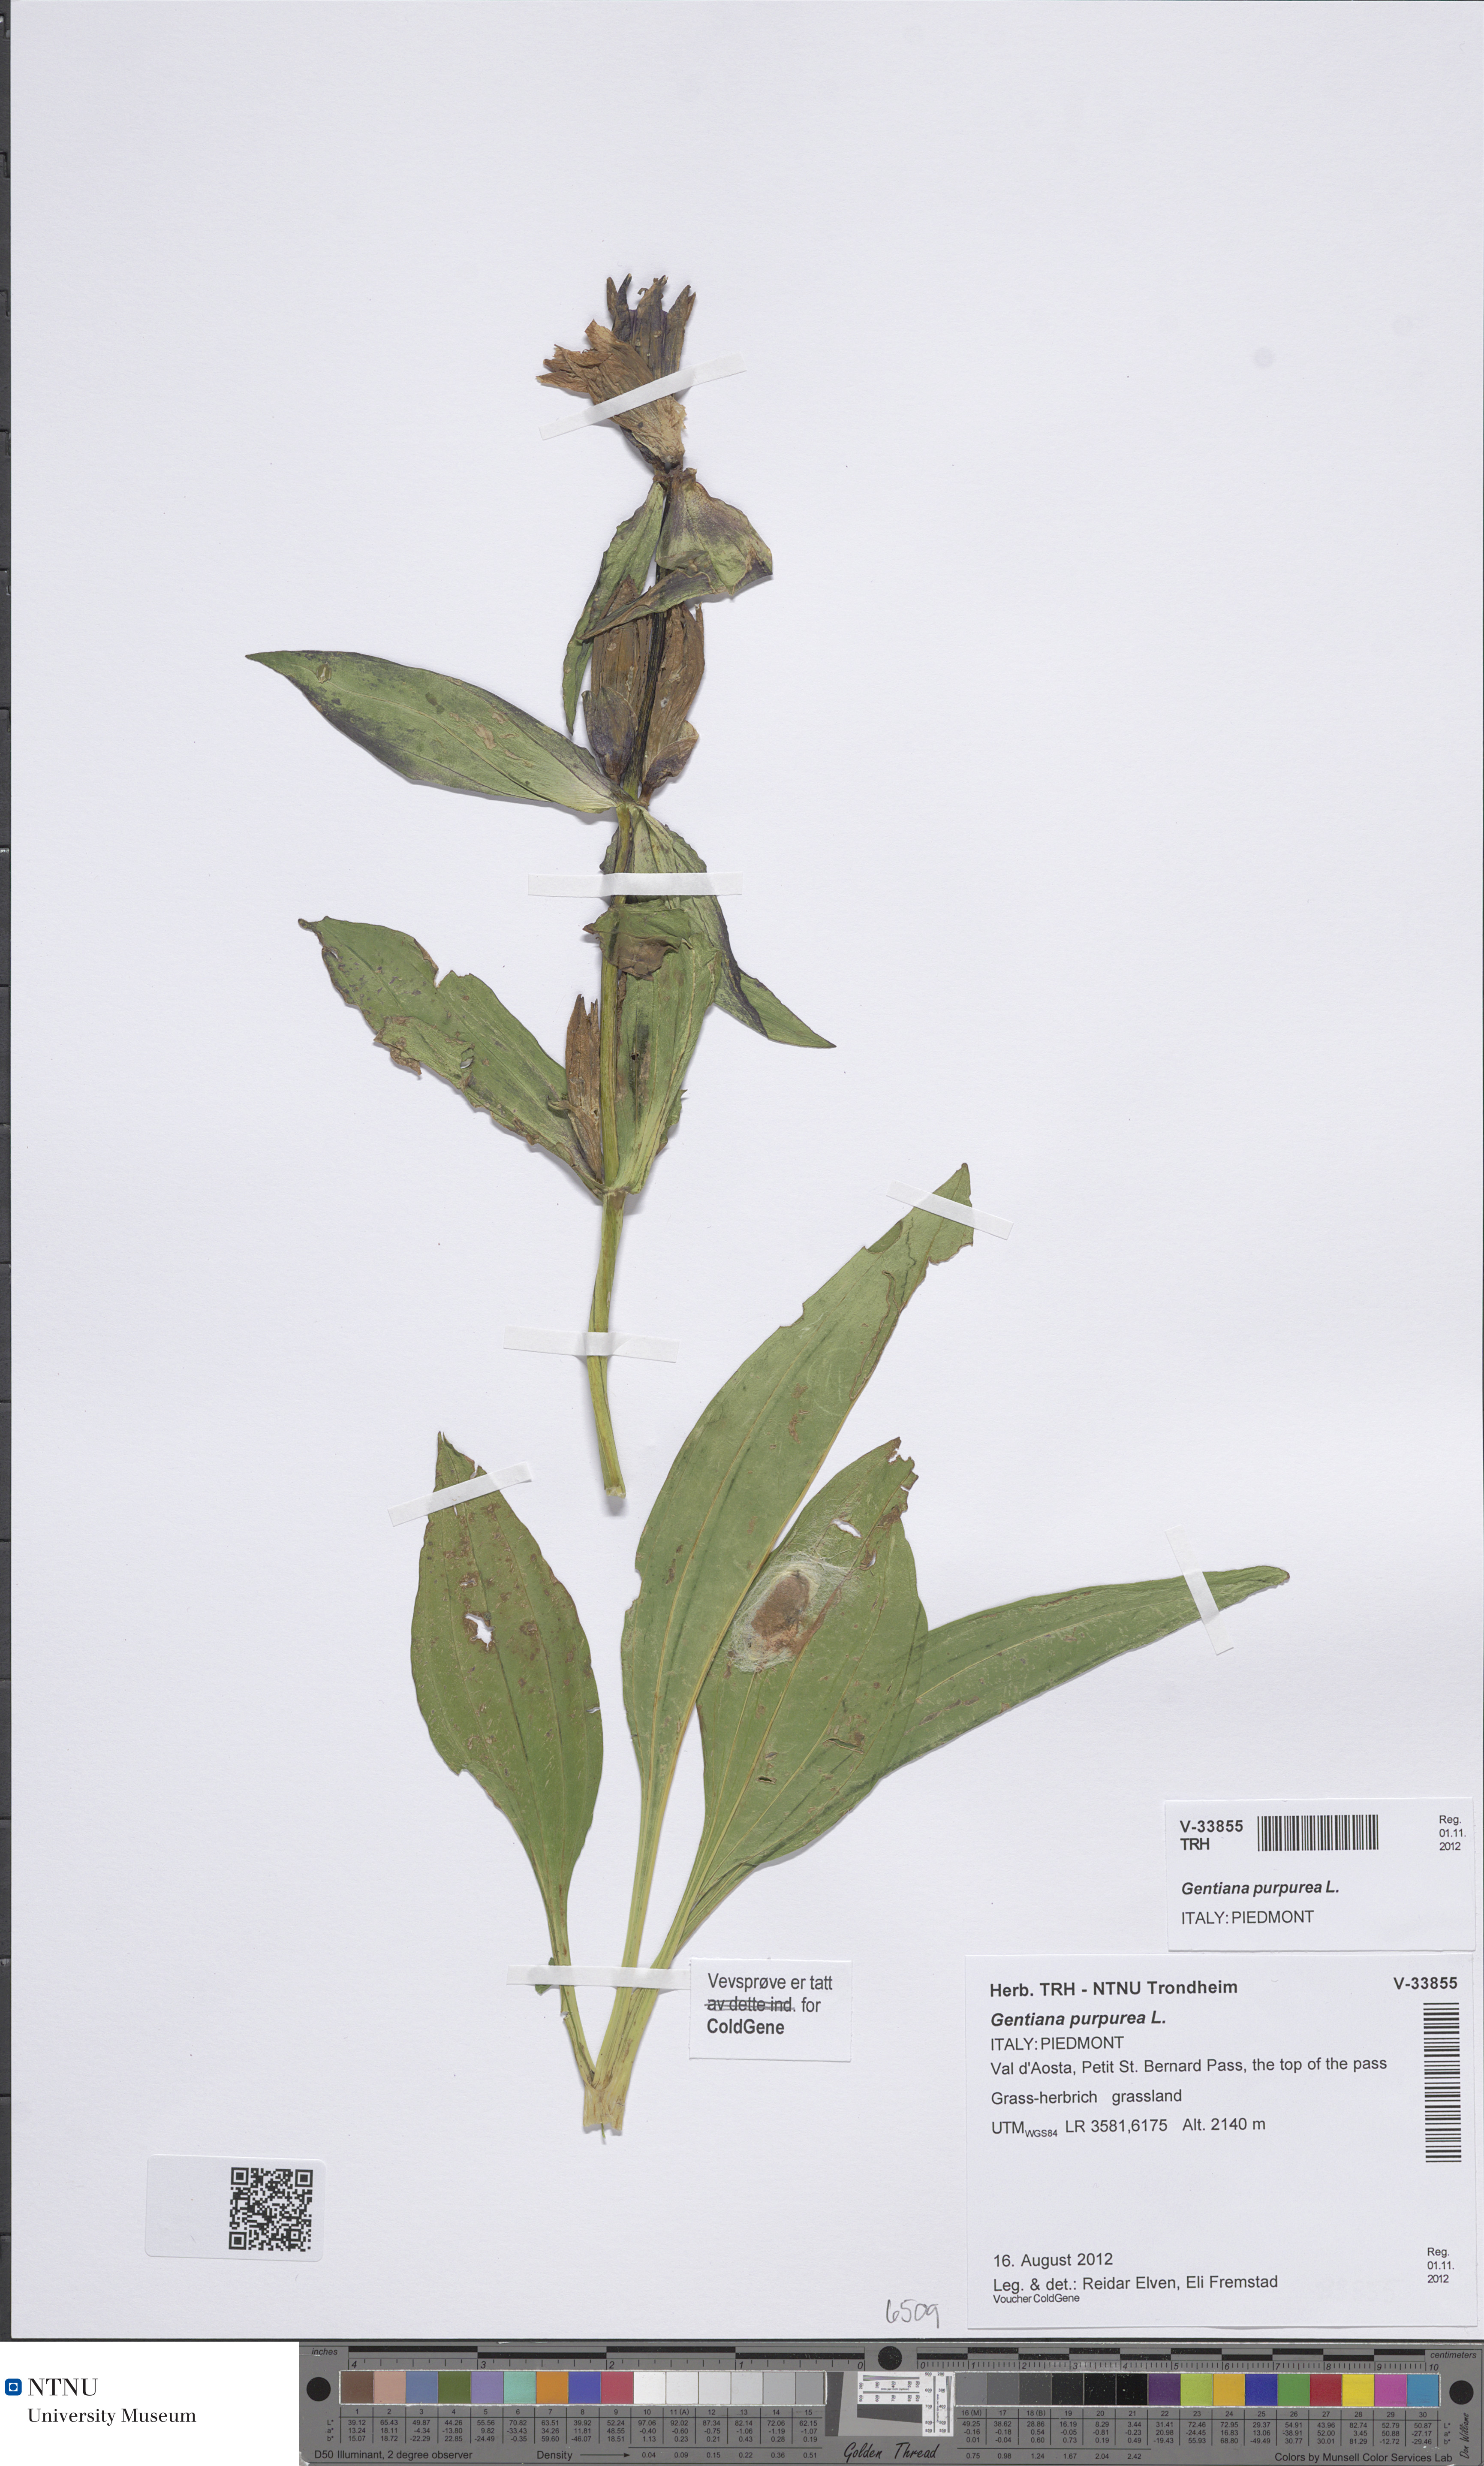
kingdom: Plantae
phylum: Tracheophyta
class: Magnoliopsida
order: Gentianales
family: Gentianaceae
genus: Gentiana
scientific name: Gentiana purpurea
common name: Purple gentian
